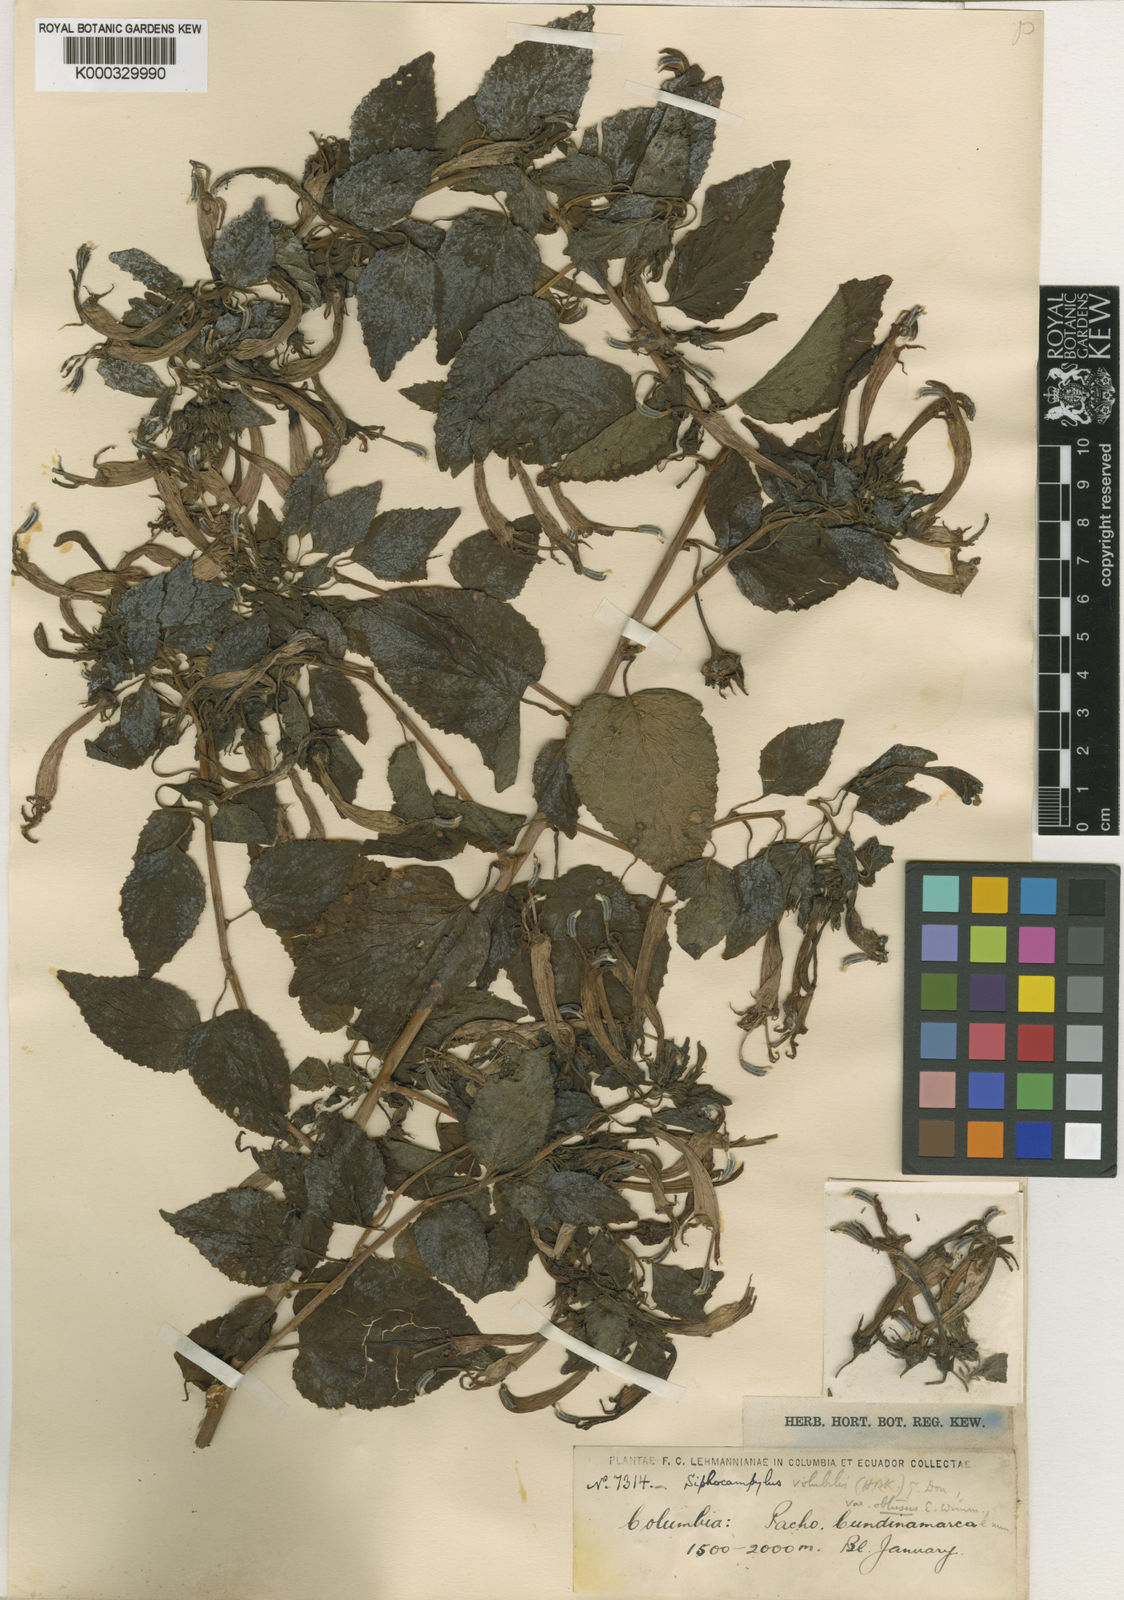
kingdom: Plantae
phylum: Tracheophyta
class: Magnoliopsida
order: Asterales
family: Campanulaceae
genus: Siphocampylus
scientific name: Siphocampylus cordatus
